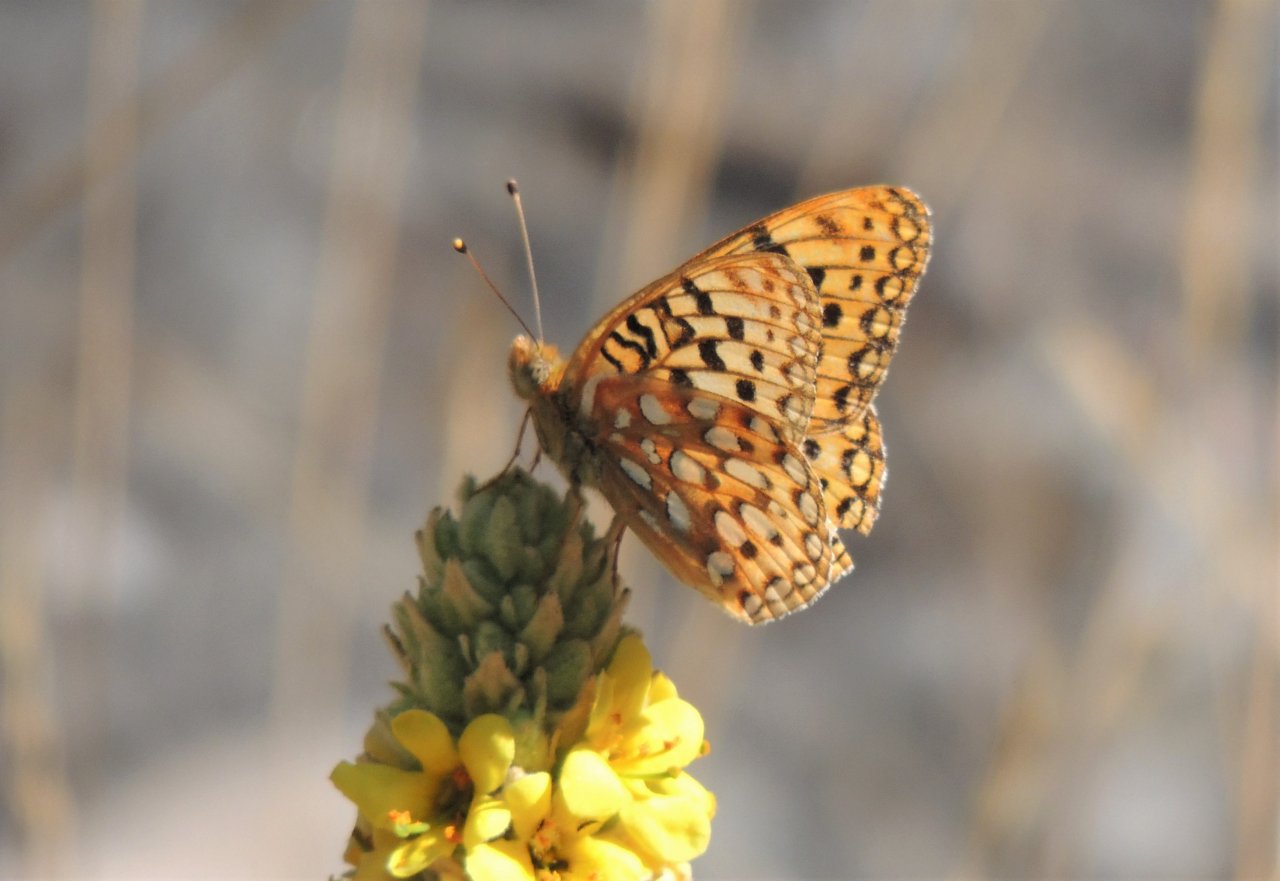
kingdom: Animalia
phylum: Arthropoda
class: Insecta
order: Lepidoptera
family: Nymphalidae
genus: Speyeria
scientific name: Speyeria zerene
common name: Zerene Fritillary
